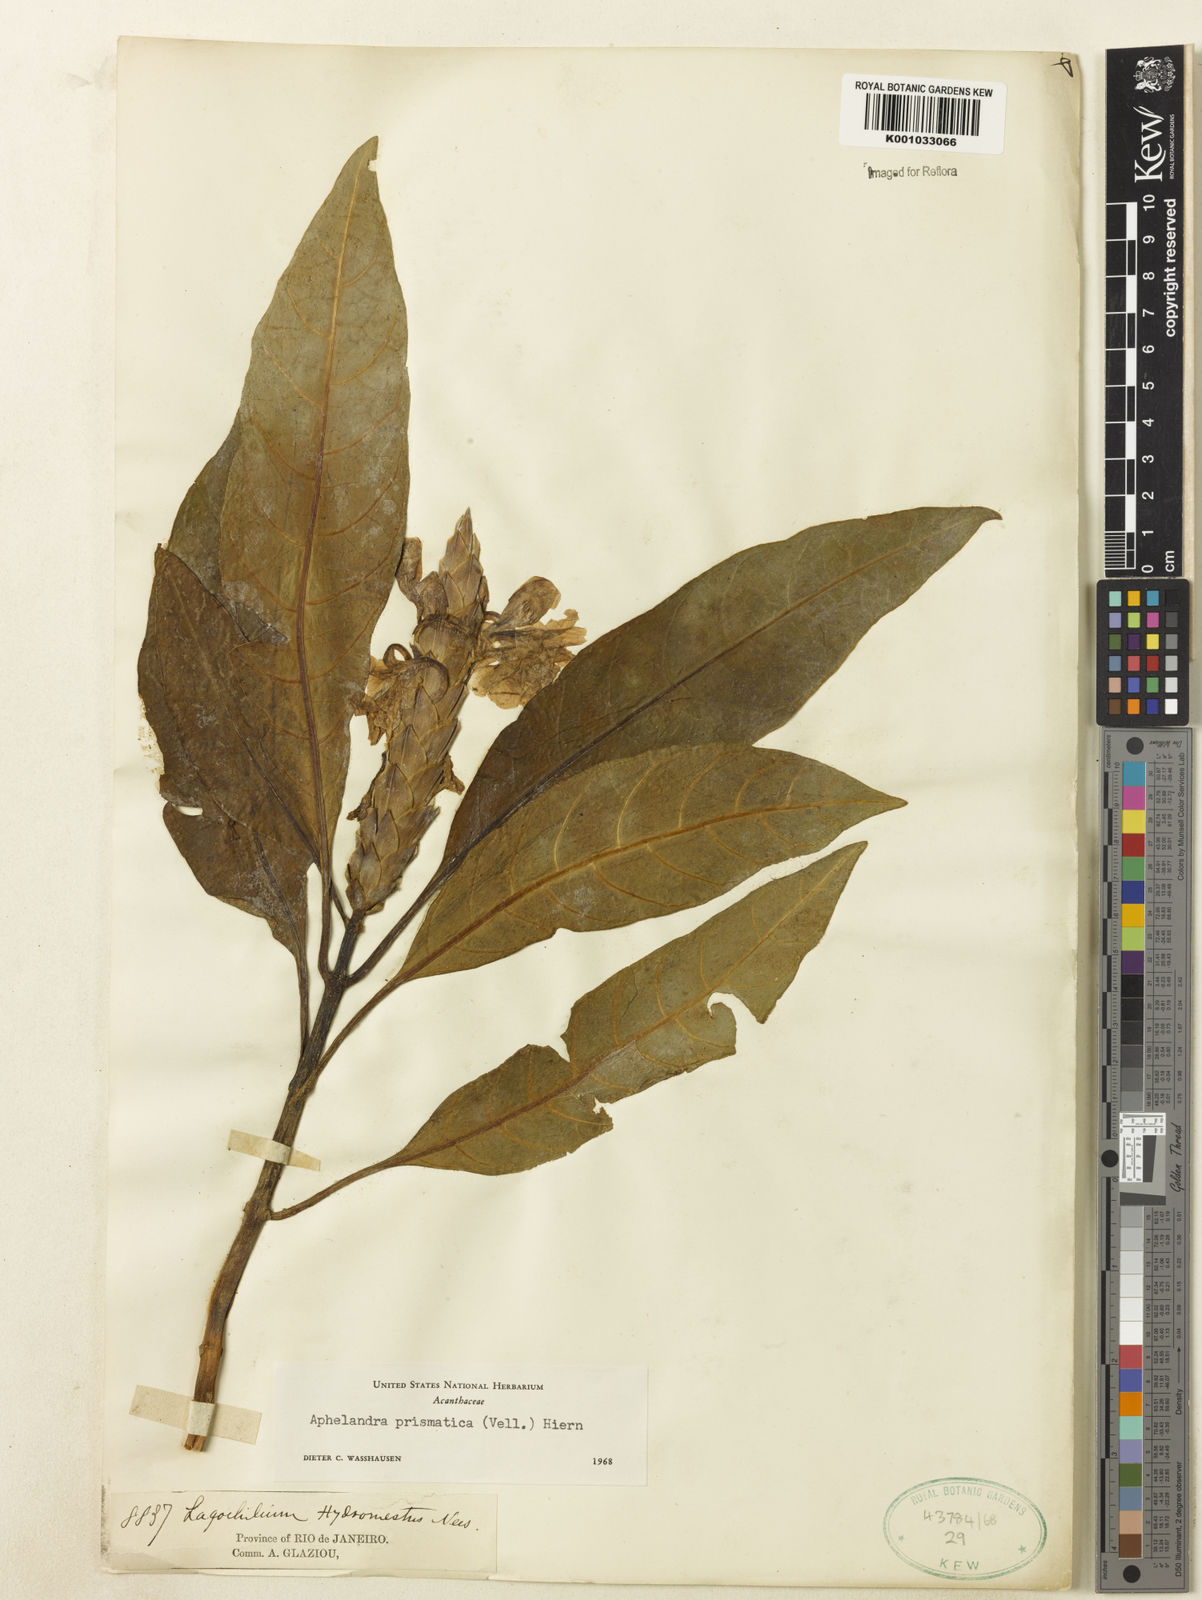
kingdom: Plantae
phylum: Tracheophyta
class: Magnoliopsida
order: Lamiales
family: Acanthaceae
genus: Aphelandra
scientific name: Aphelandra prismatica
